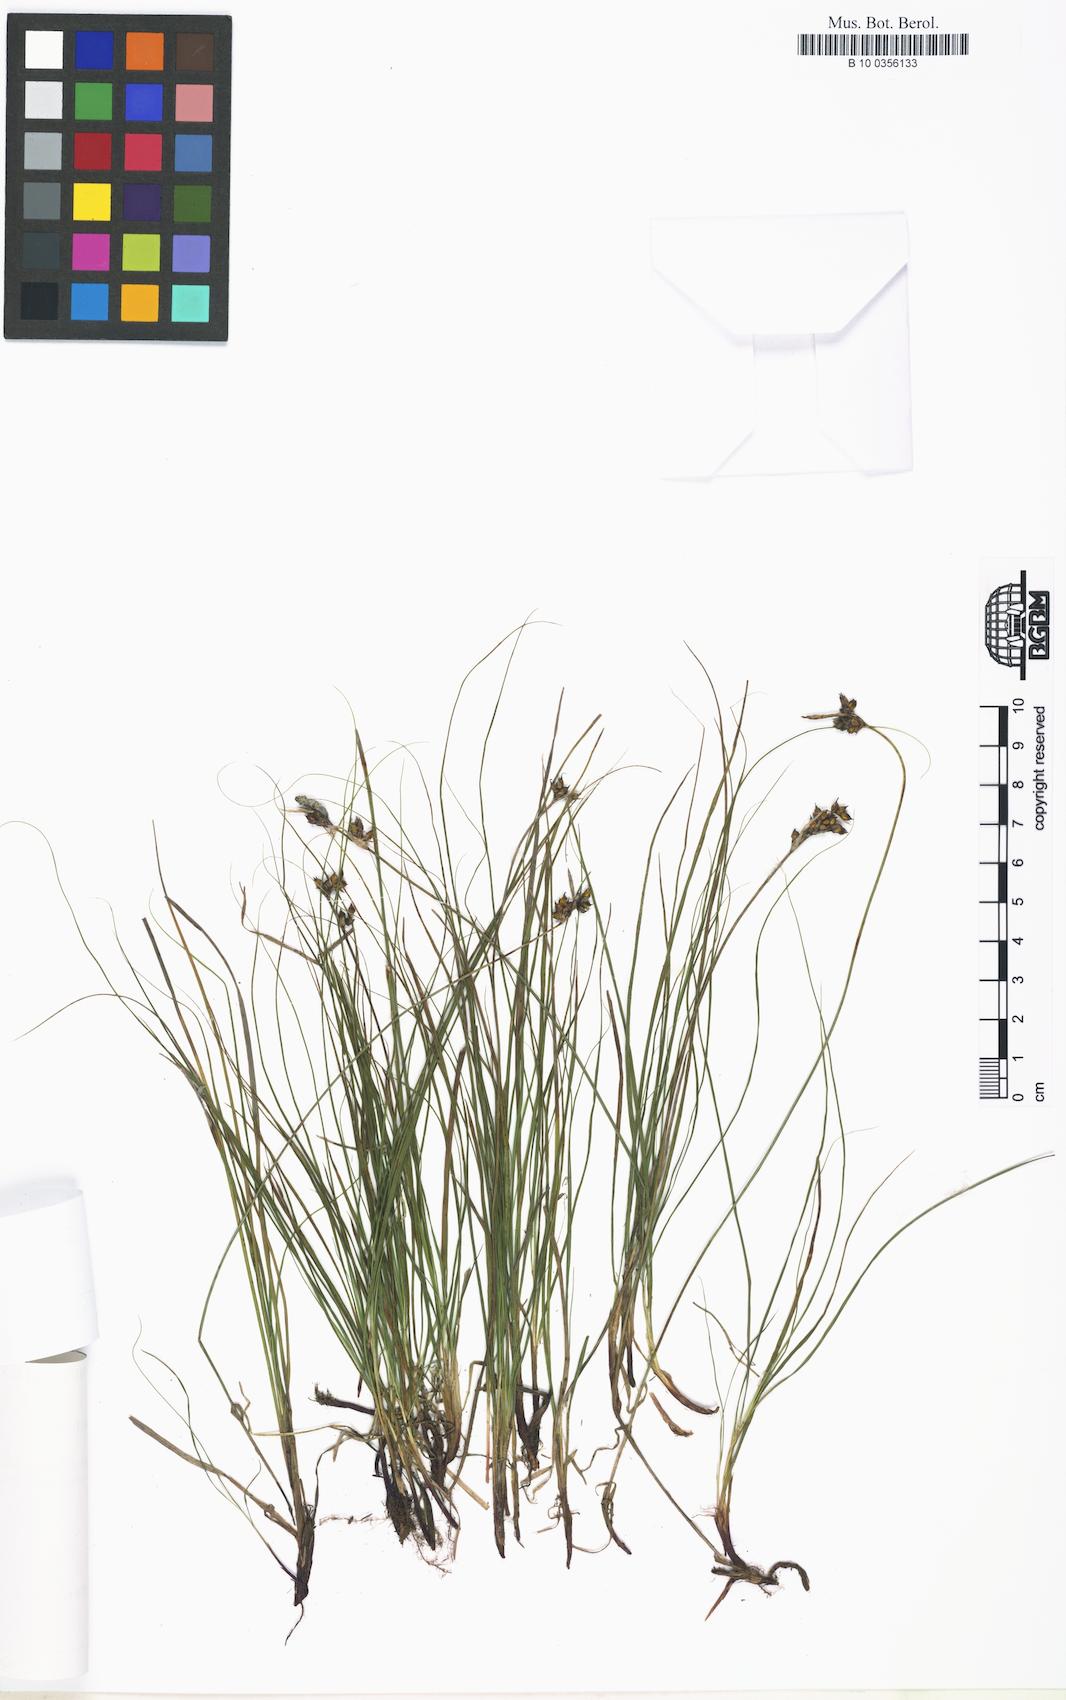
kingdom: Plantae
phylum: Tracheophyta
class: Liliopsida
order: Poales
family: Cyperaceae
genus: Carex
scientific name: Carex humilis
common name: Dwarf sedge
